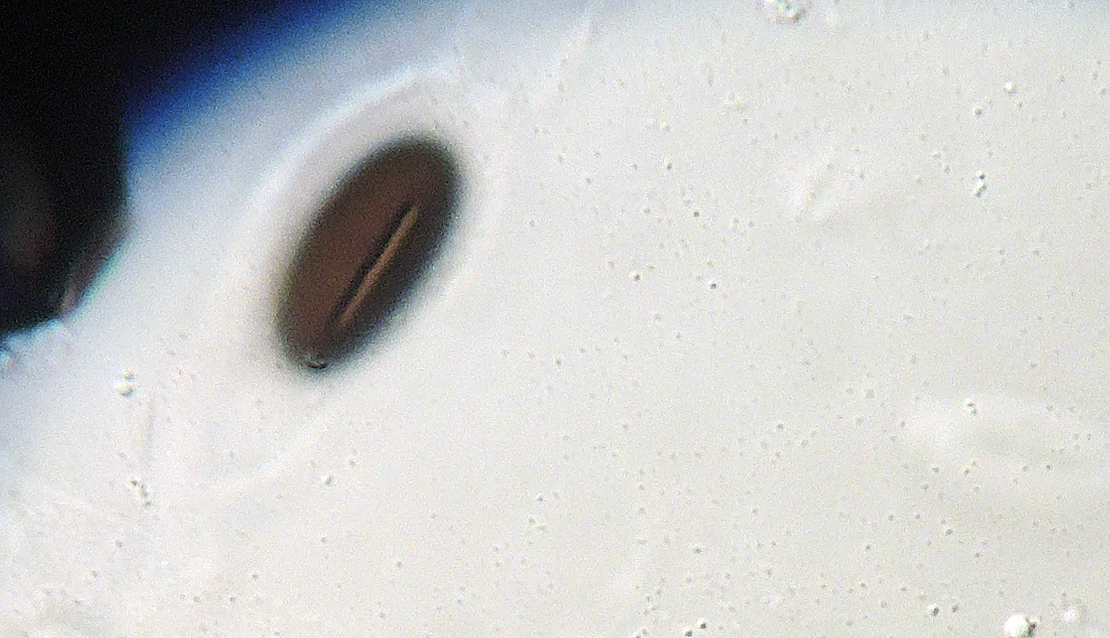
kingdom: Fungi
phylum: Ascomycota
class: Sordariomycetes
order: Xylariales
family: Xylariaceae
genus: Hypocopra
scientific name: Hypocopra brefeldii
